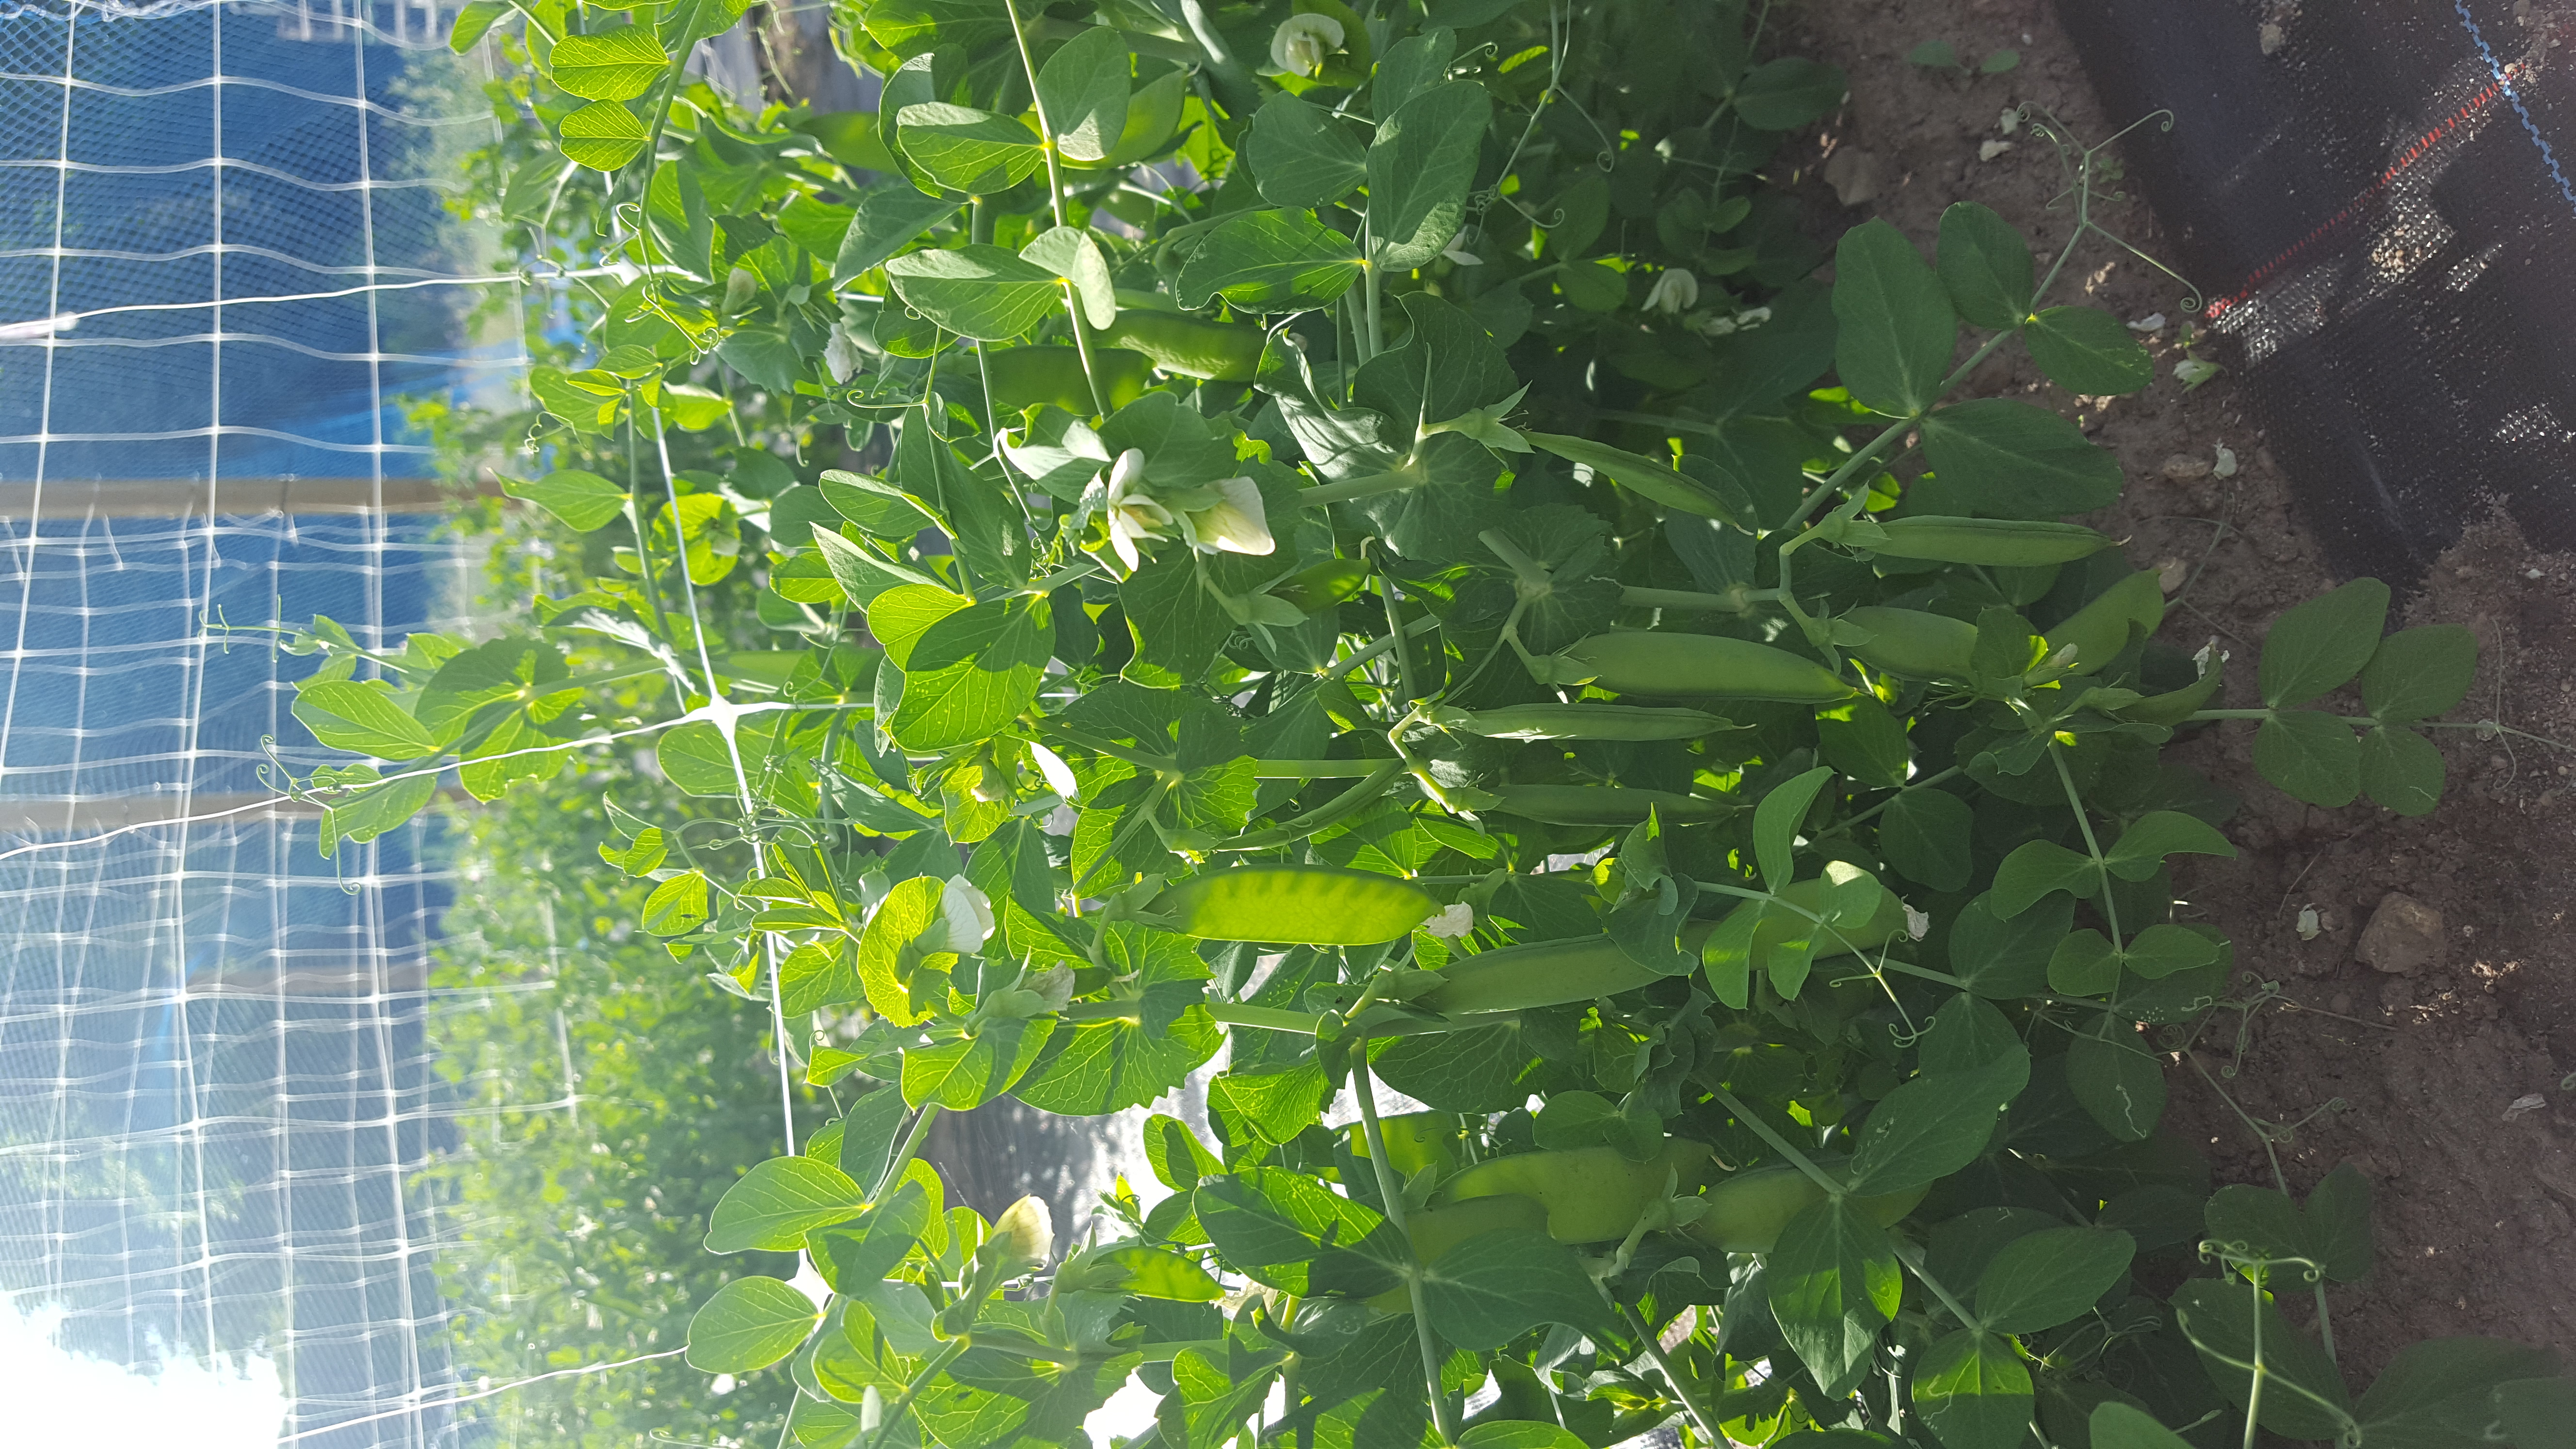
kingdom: Plantae
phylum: Tracheophyta
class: Magnoliopsida
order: Fabales
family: Fabaceae
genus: Lathyrus
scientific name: Lathyrus oleraceus
